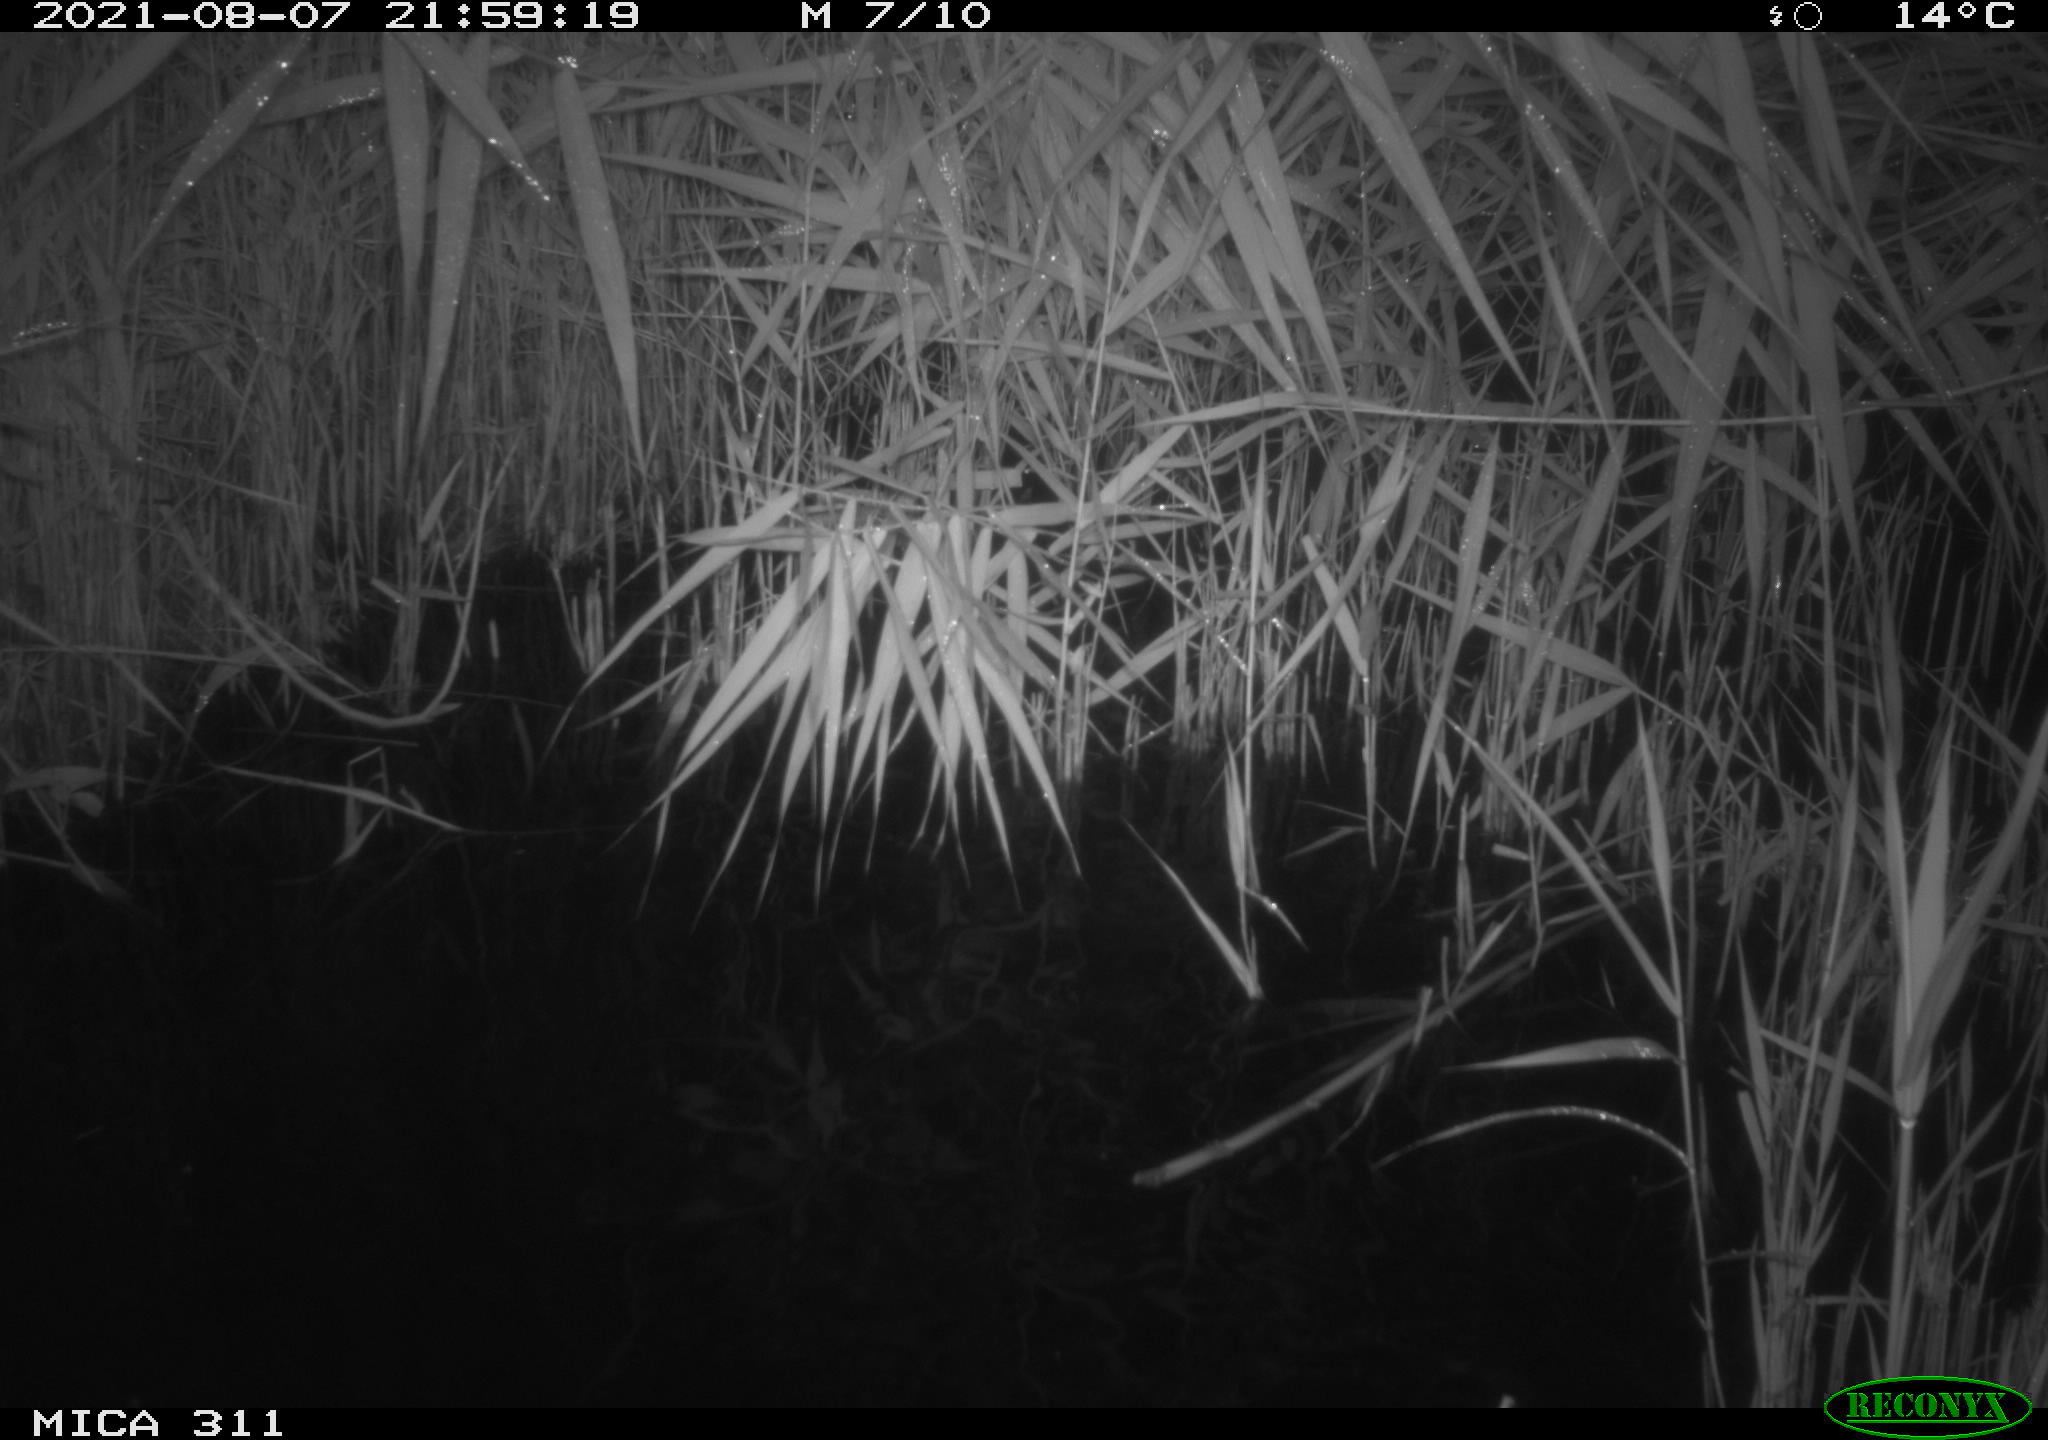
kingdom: Animalia
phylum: Chordata
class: Mammalia
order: Rodentia
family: Muridae
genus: Rattus
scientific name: Rattus norvegicus
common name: Brown rat
